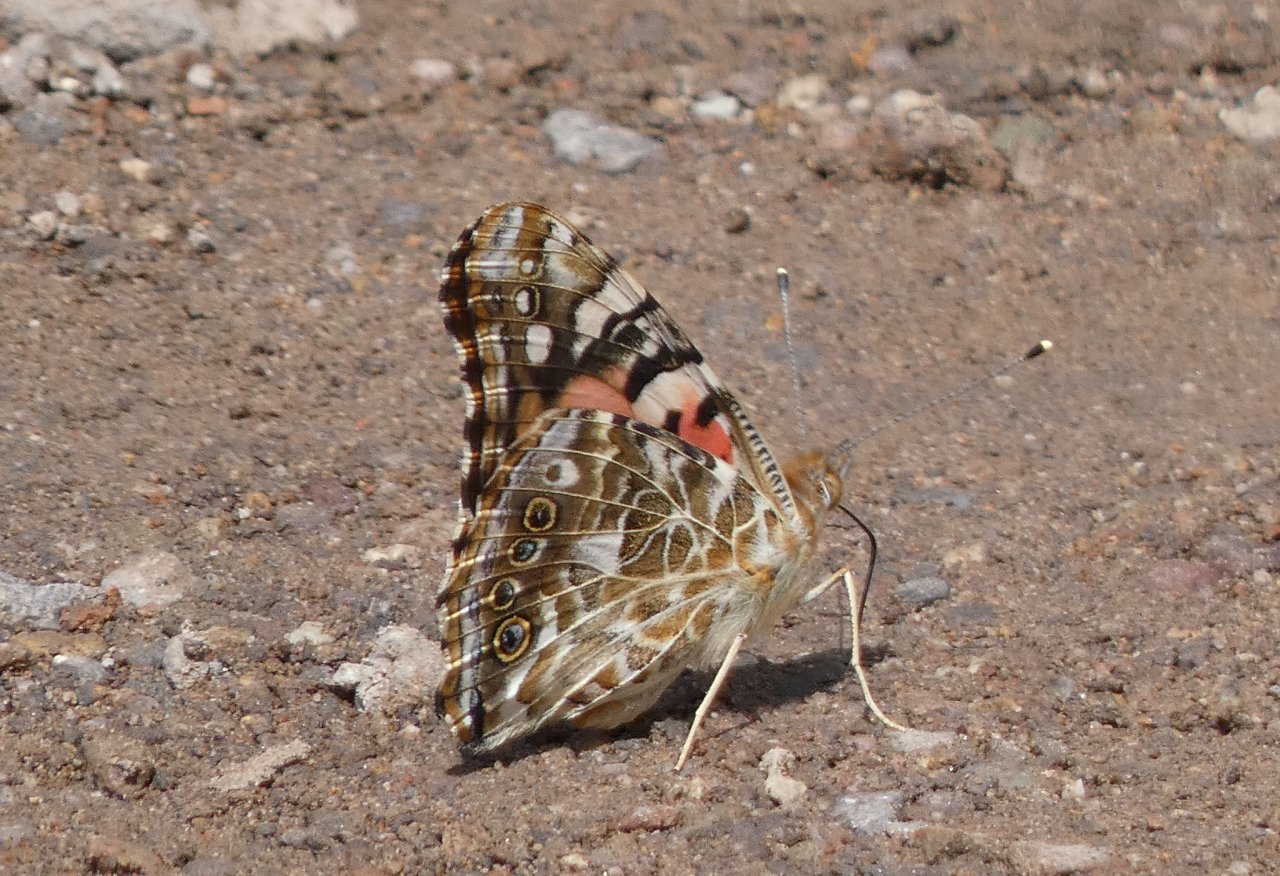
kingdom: Animalia
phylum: Arthropoda
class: Insecta
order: Lepidoptera
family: Nymphalidae
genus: Vanessa
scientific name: Vanessa cardui
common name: Painted Lady
